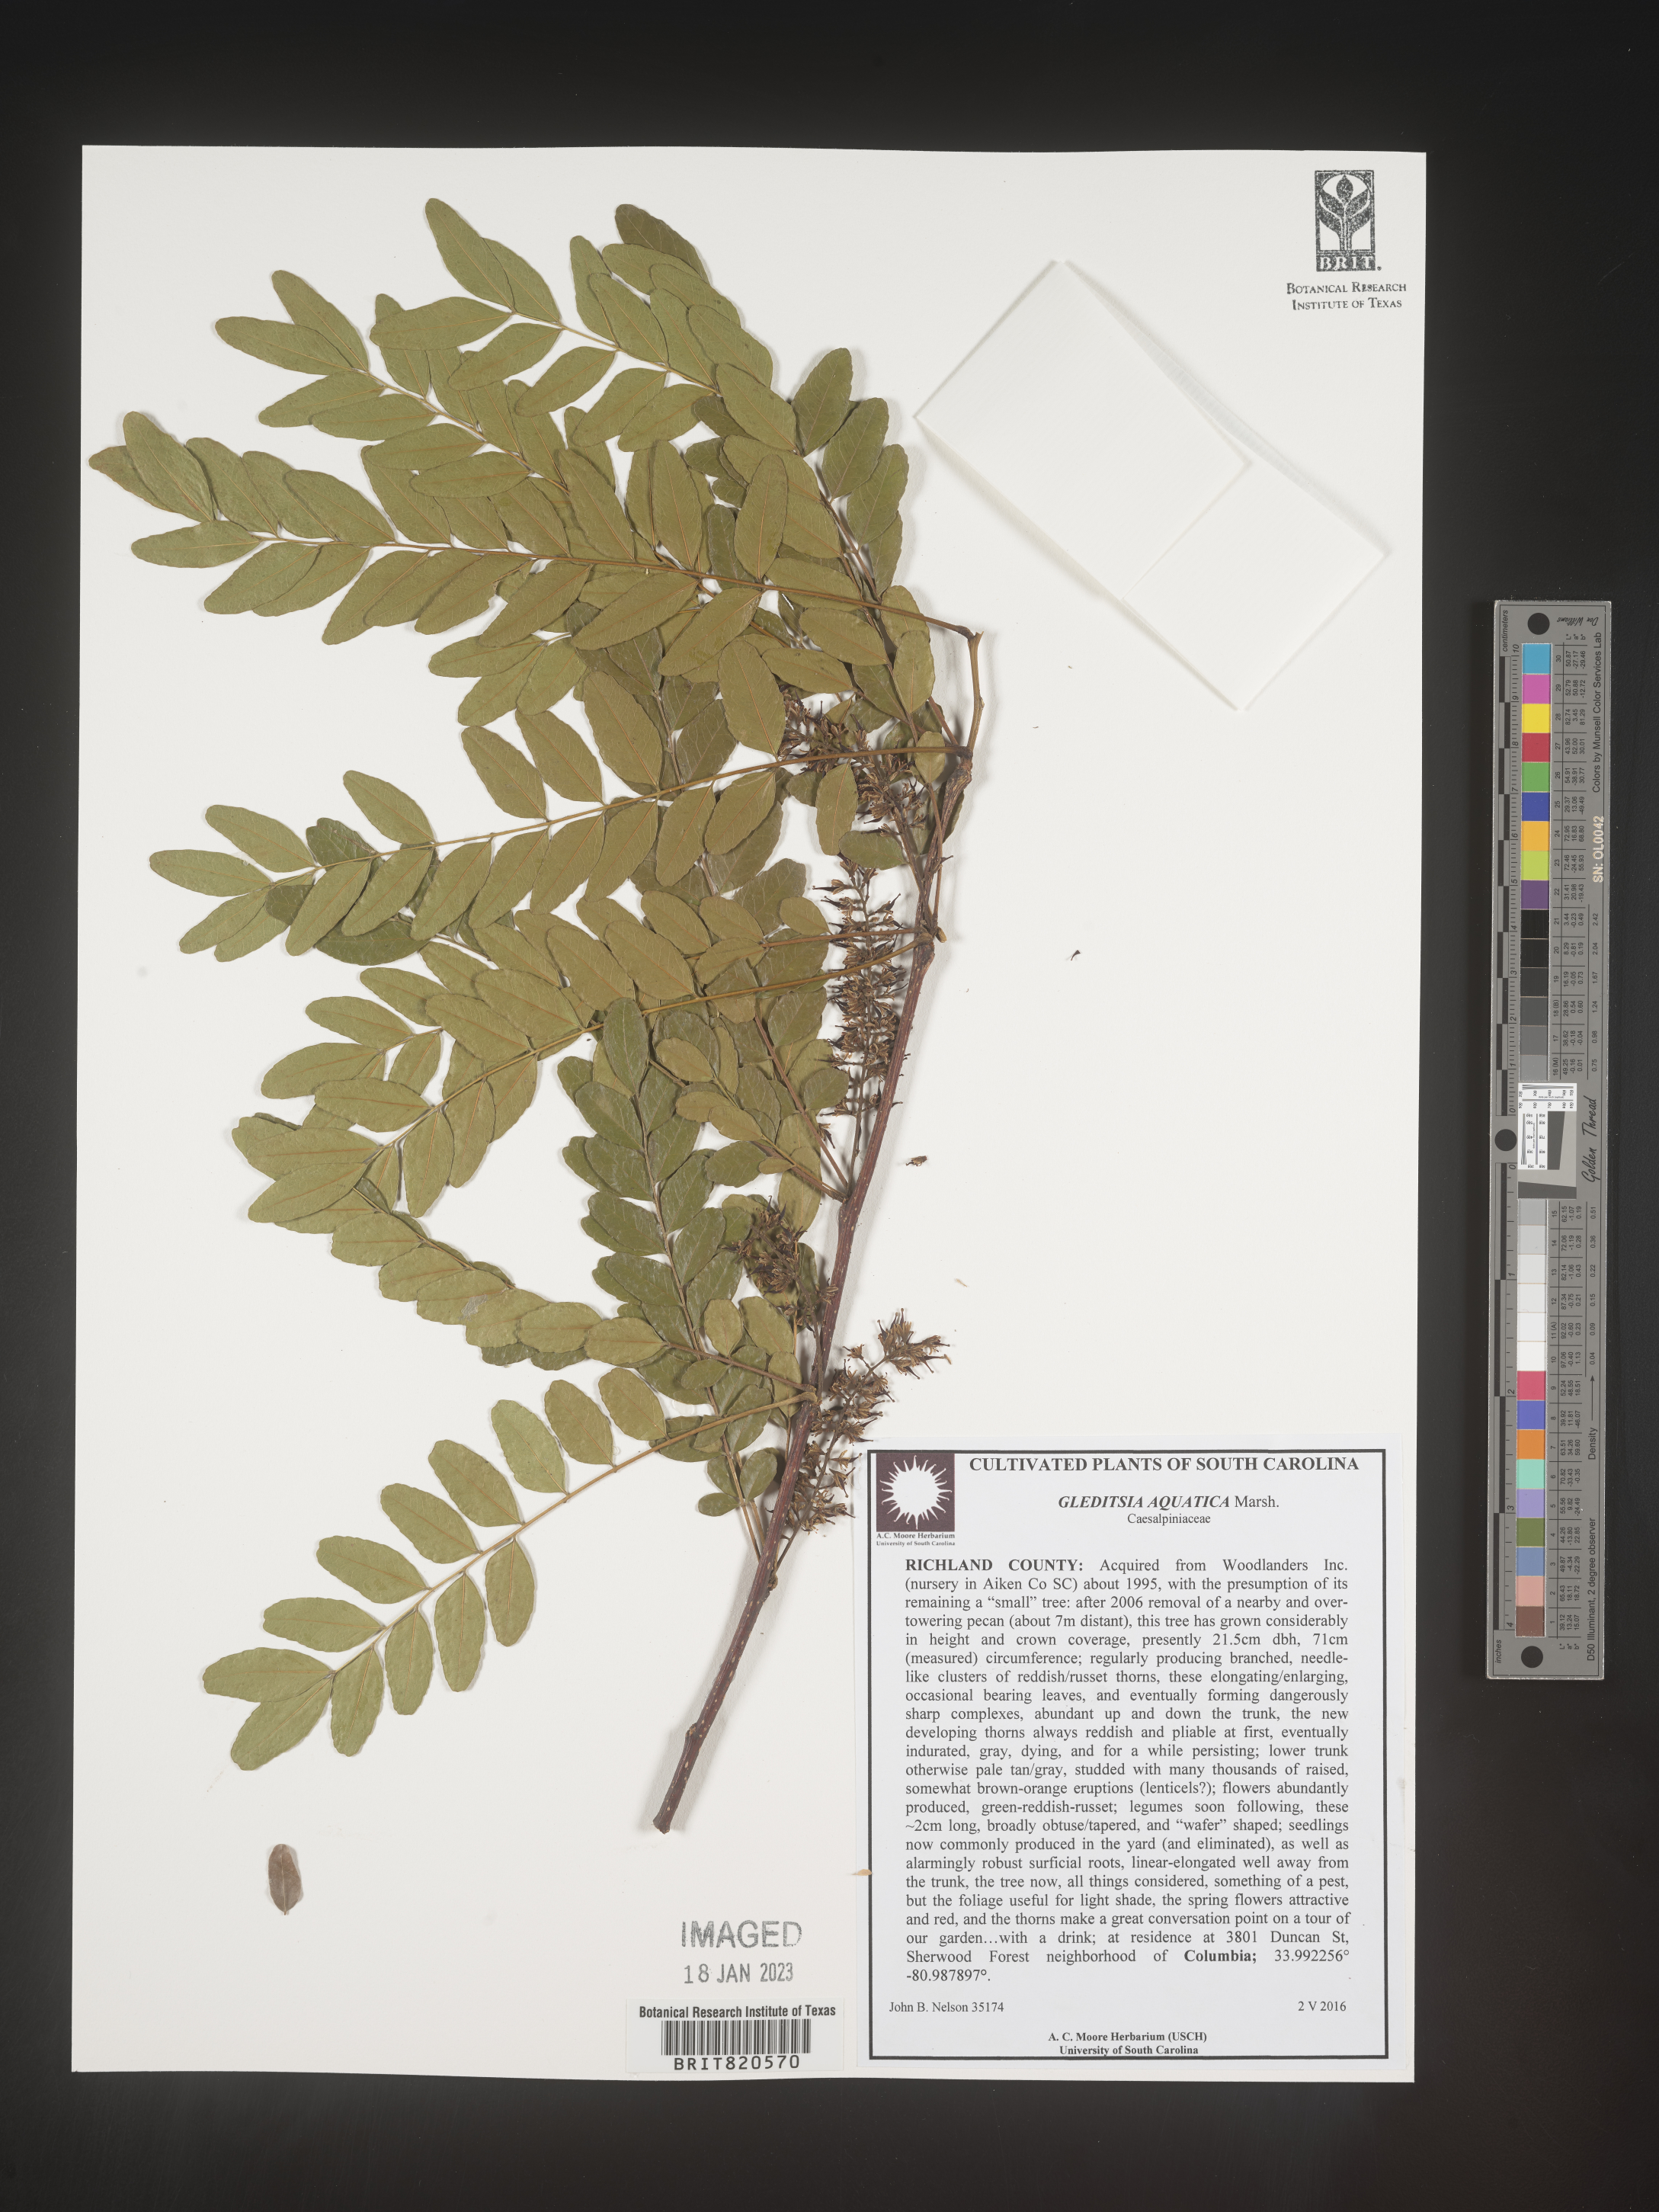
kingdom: Plantae
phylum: Tracheophyta
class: Magnoliopsida
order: Fabales
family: Fabaceae
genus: Gleditsia
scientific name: Gleditsia aquatica
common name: Swamp-locust
